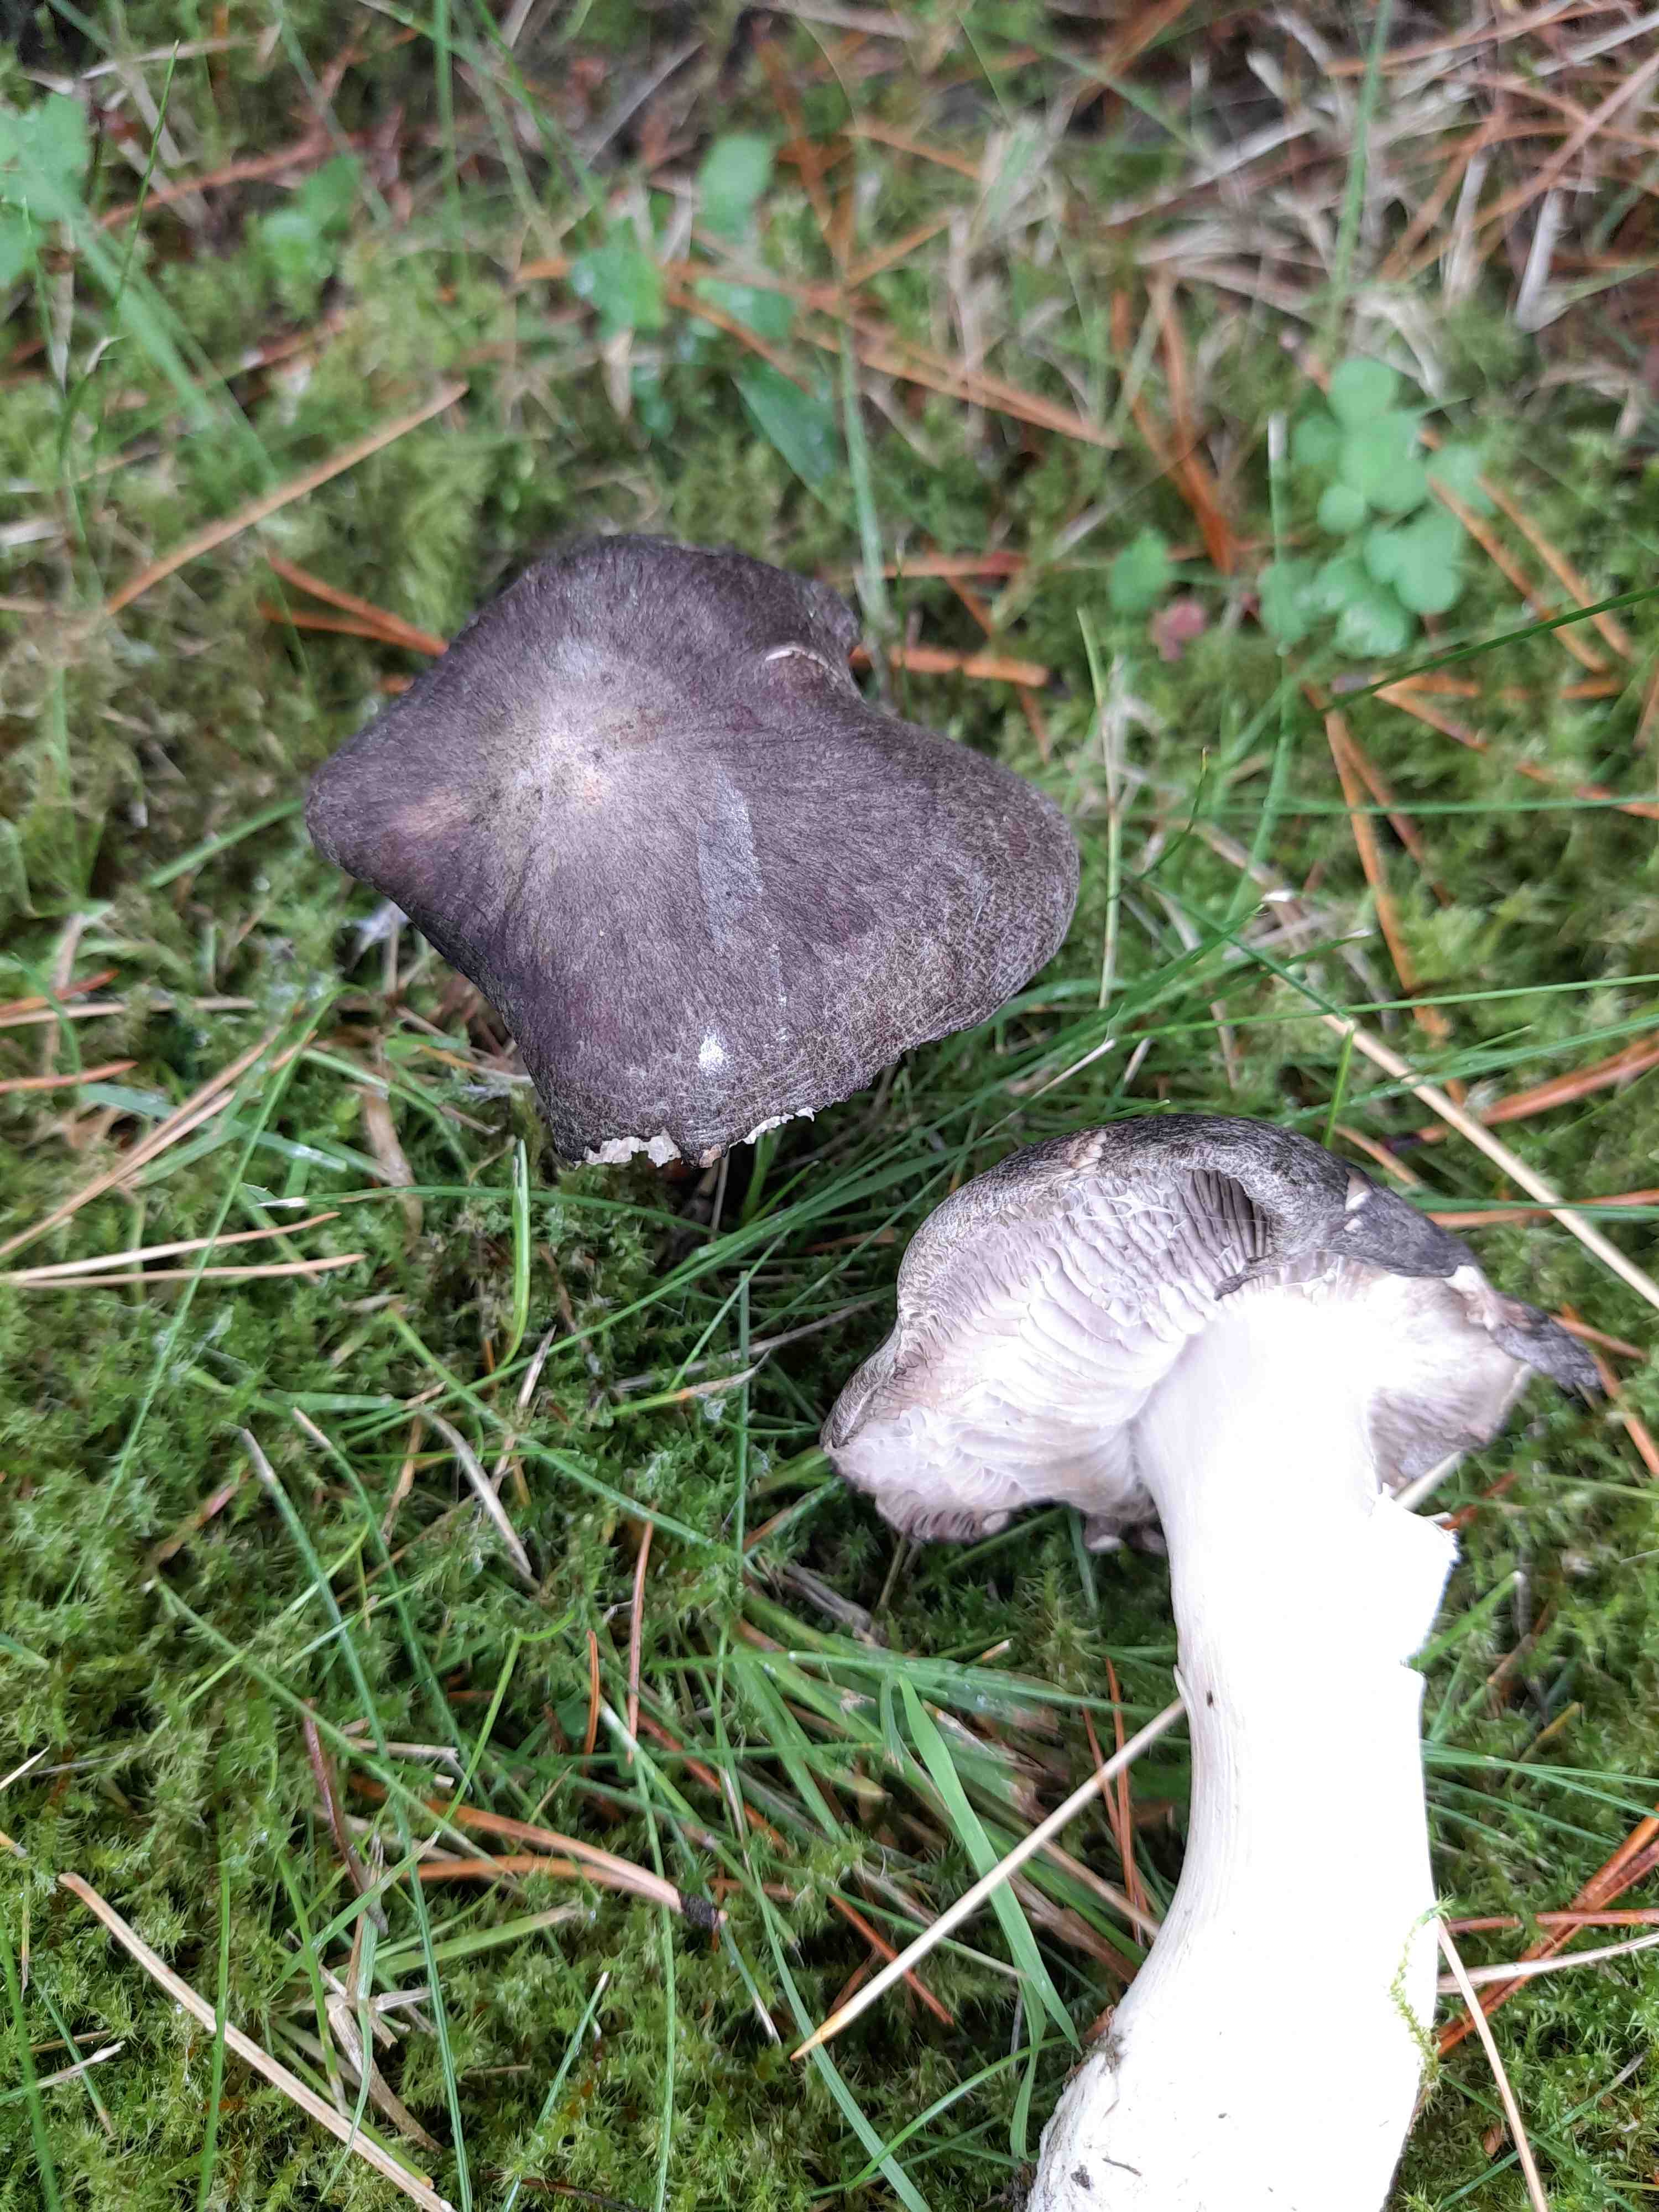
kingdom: Fungi
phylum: Basidiomycota
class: Agaricomycetes
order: Agaricales
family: Tricholomataceae
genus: Tricholoma
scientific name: Tricholoma terreum
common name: jordfarvet ridderhat
